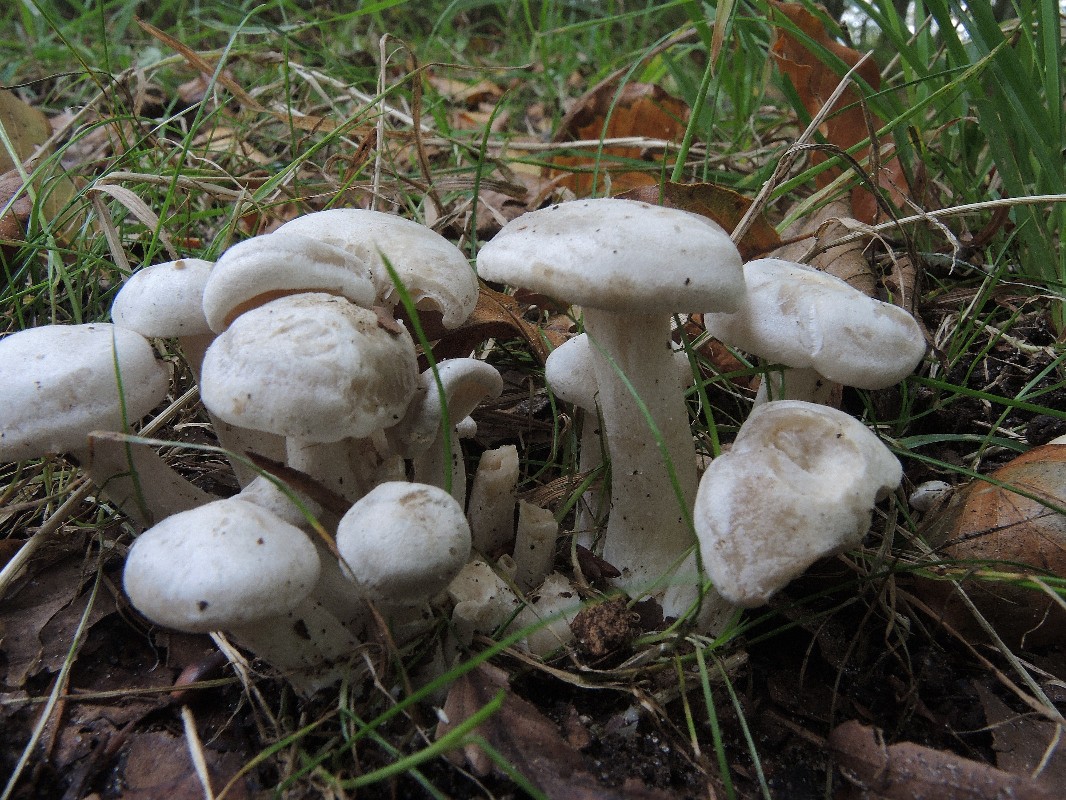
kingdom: Fungi
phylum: Basidiomycota
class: Agaricomycetes
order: Agaricales
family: Tricholomataceae
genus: Leucocybe
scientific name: Leucocybe connata
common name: knippe-tragthat
